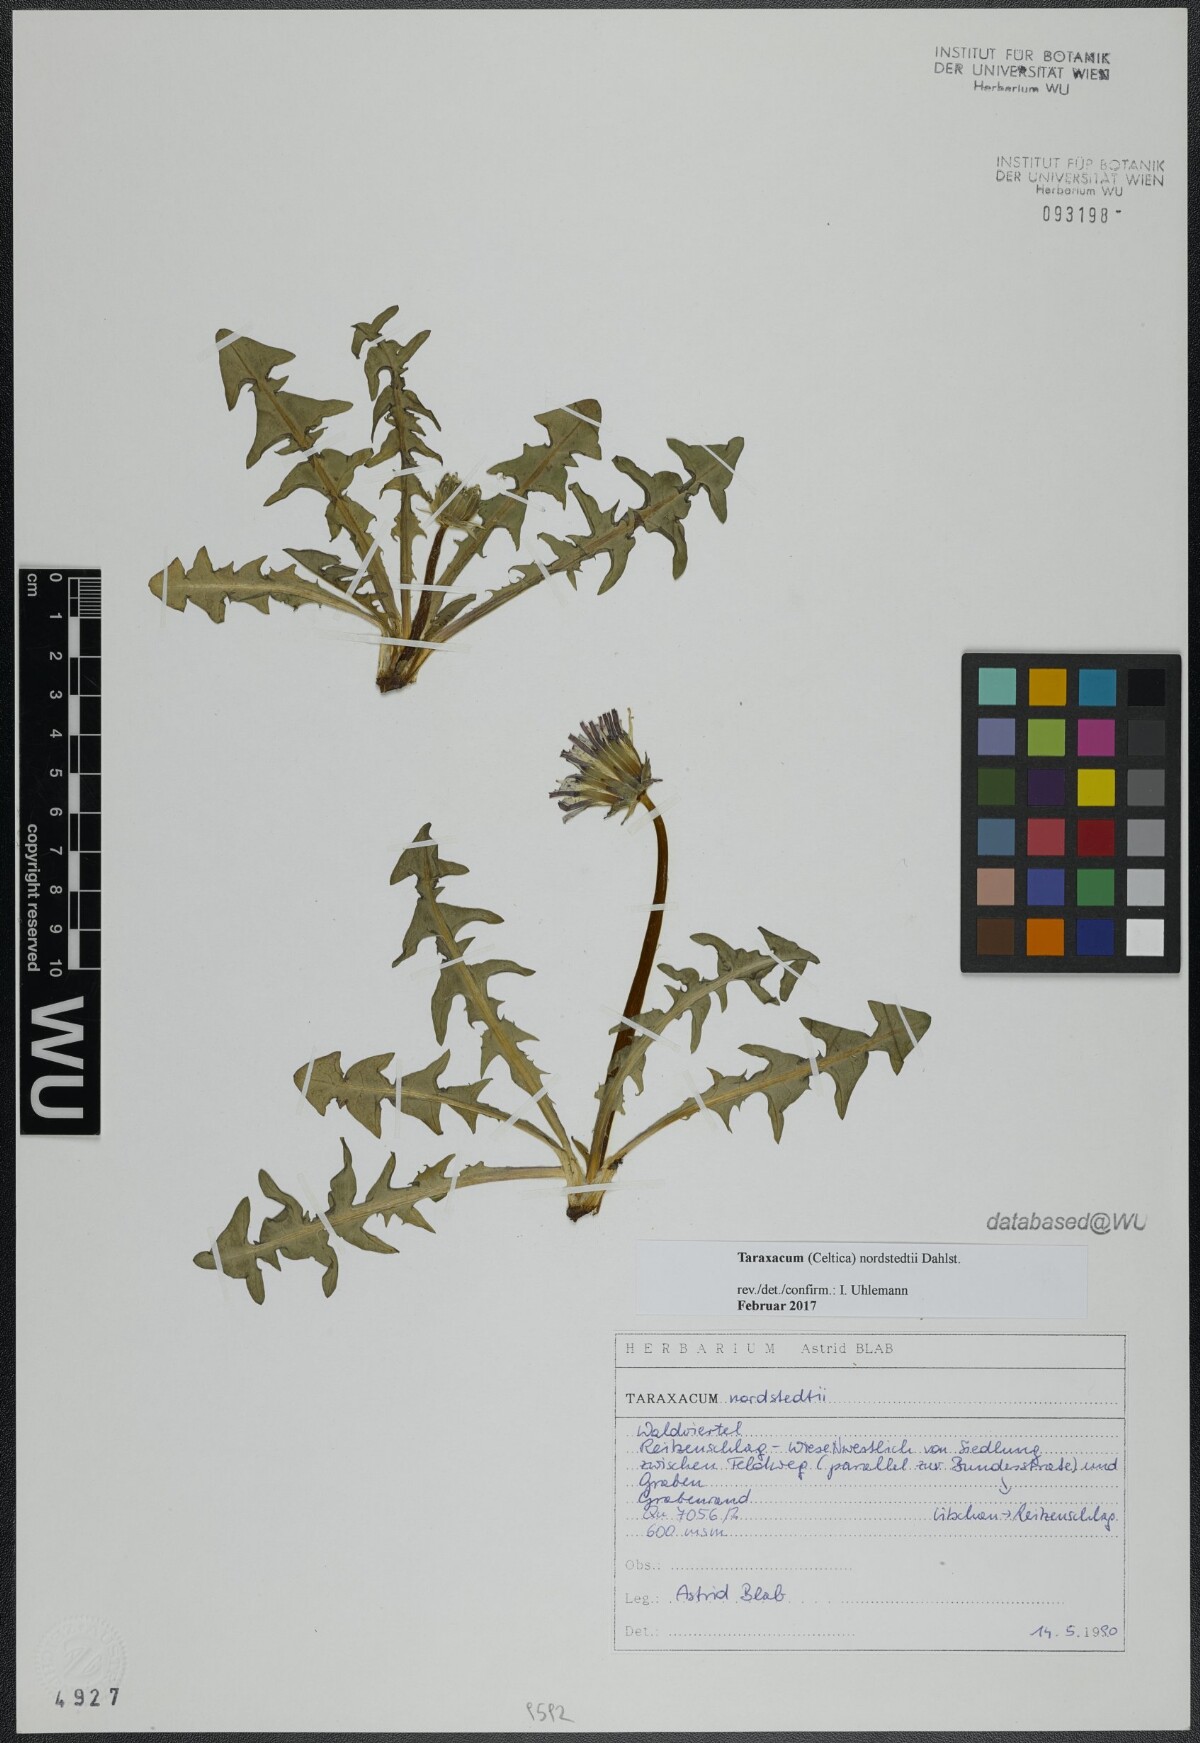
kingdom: Plantae
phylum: Tracheophyta
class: Magnoliopsida
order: Asterales
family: Asteraceae
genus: Taraxacum
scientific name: Taraxacum nordstedtii
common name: Nordstedt's dandelion
